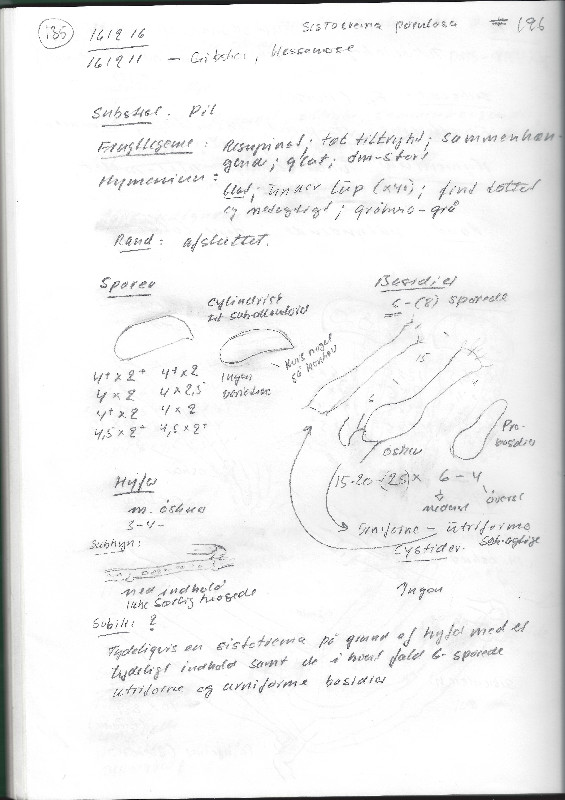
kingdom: Fungi
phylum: Basidiomycota
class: Agaricomycetes
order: Cantharellales
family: Hydnaceae
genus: Sistotrema
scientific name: Sistotrema porulosum
